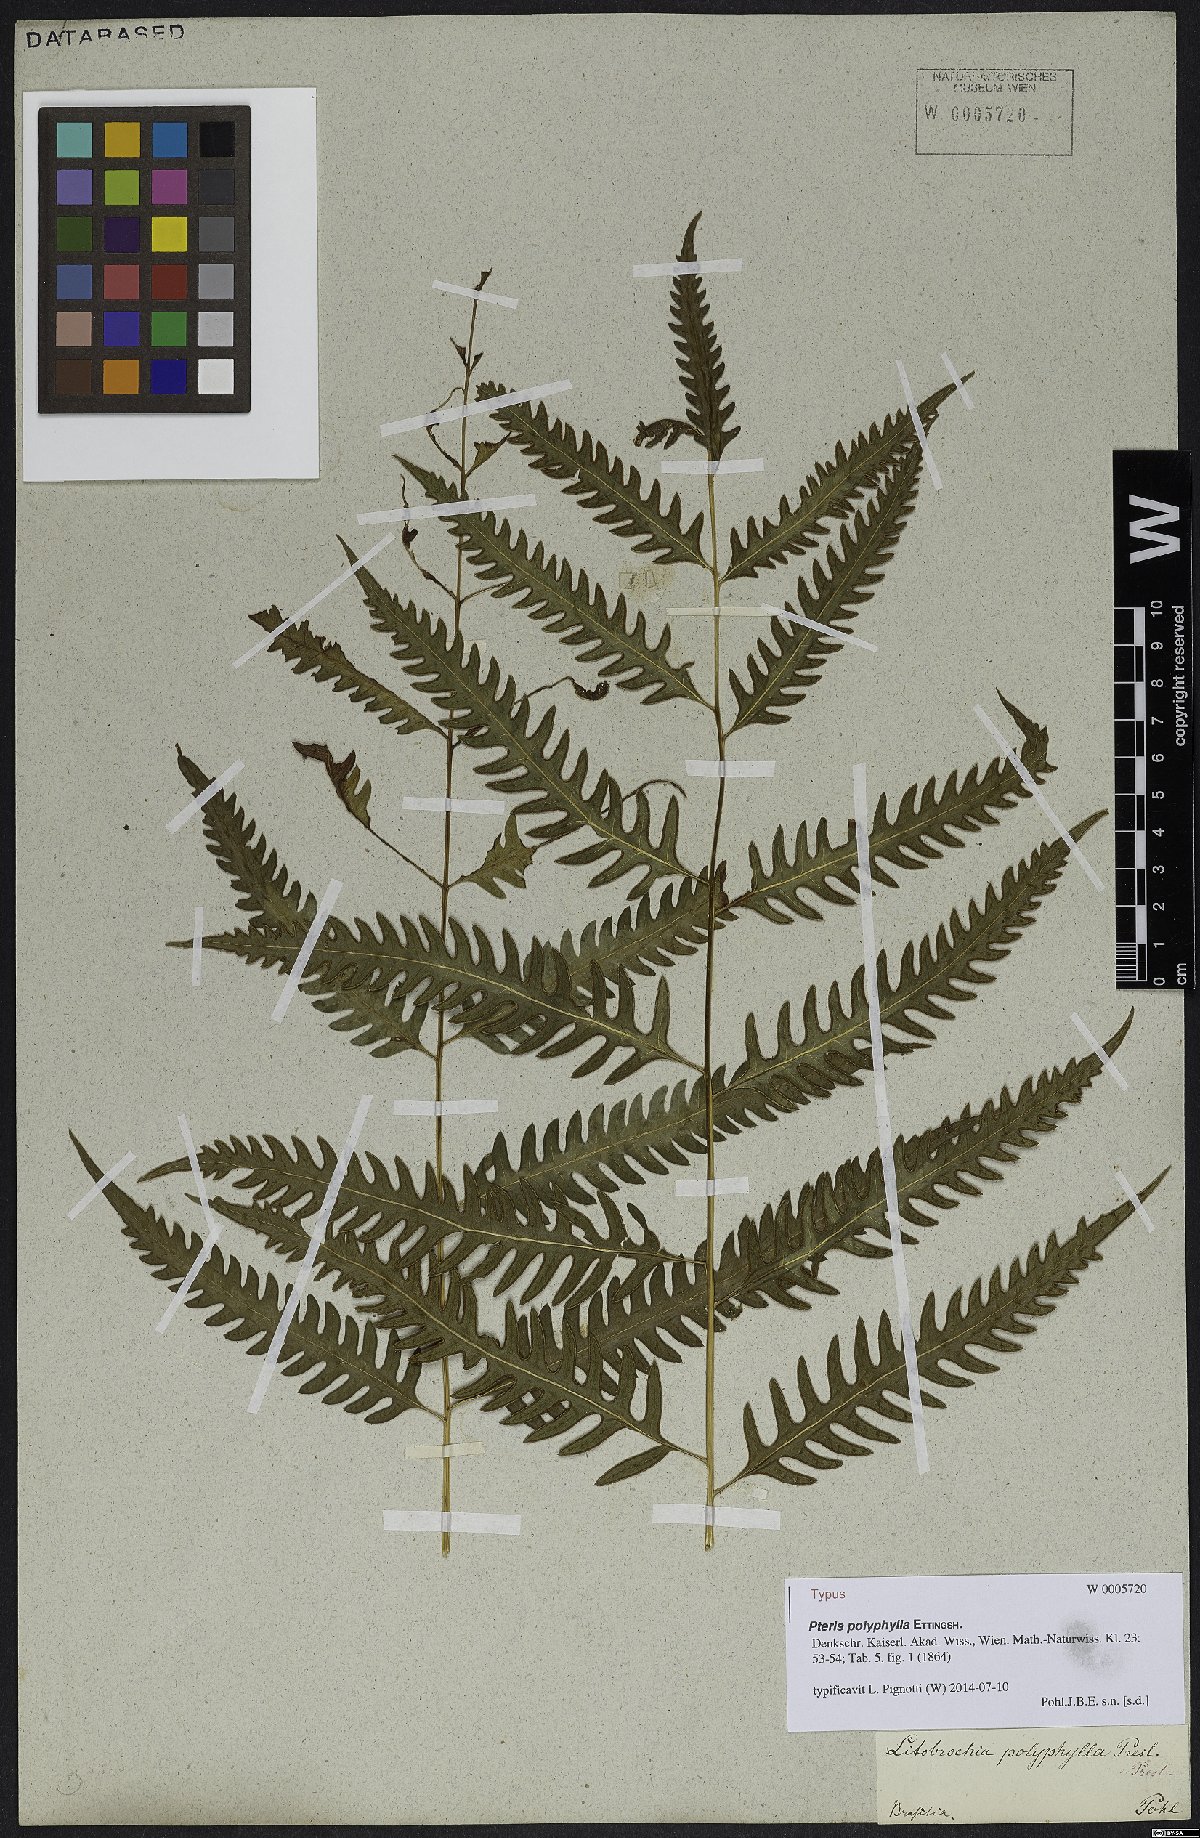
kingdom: Plantae
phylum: Tracheophyta
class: Polypodiopsida
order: Polypodiales
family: Pteridaceae
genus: Pteris
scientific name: Pteris polyphylla
